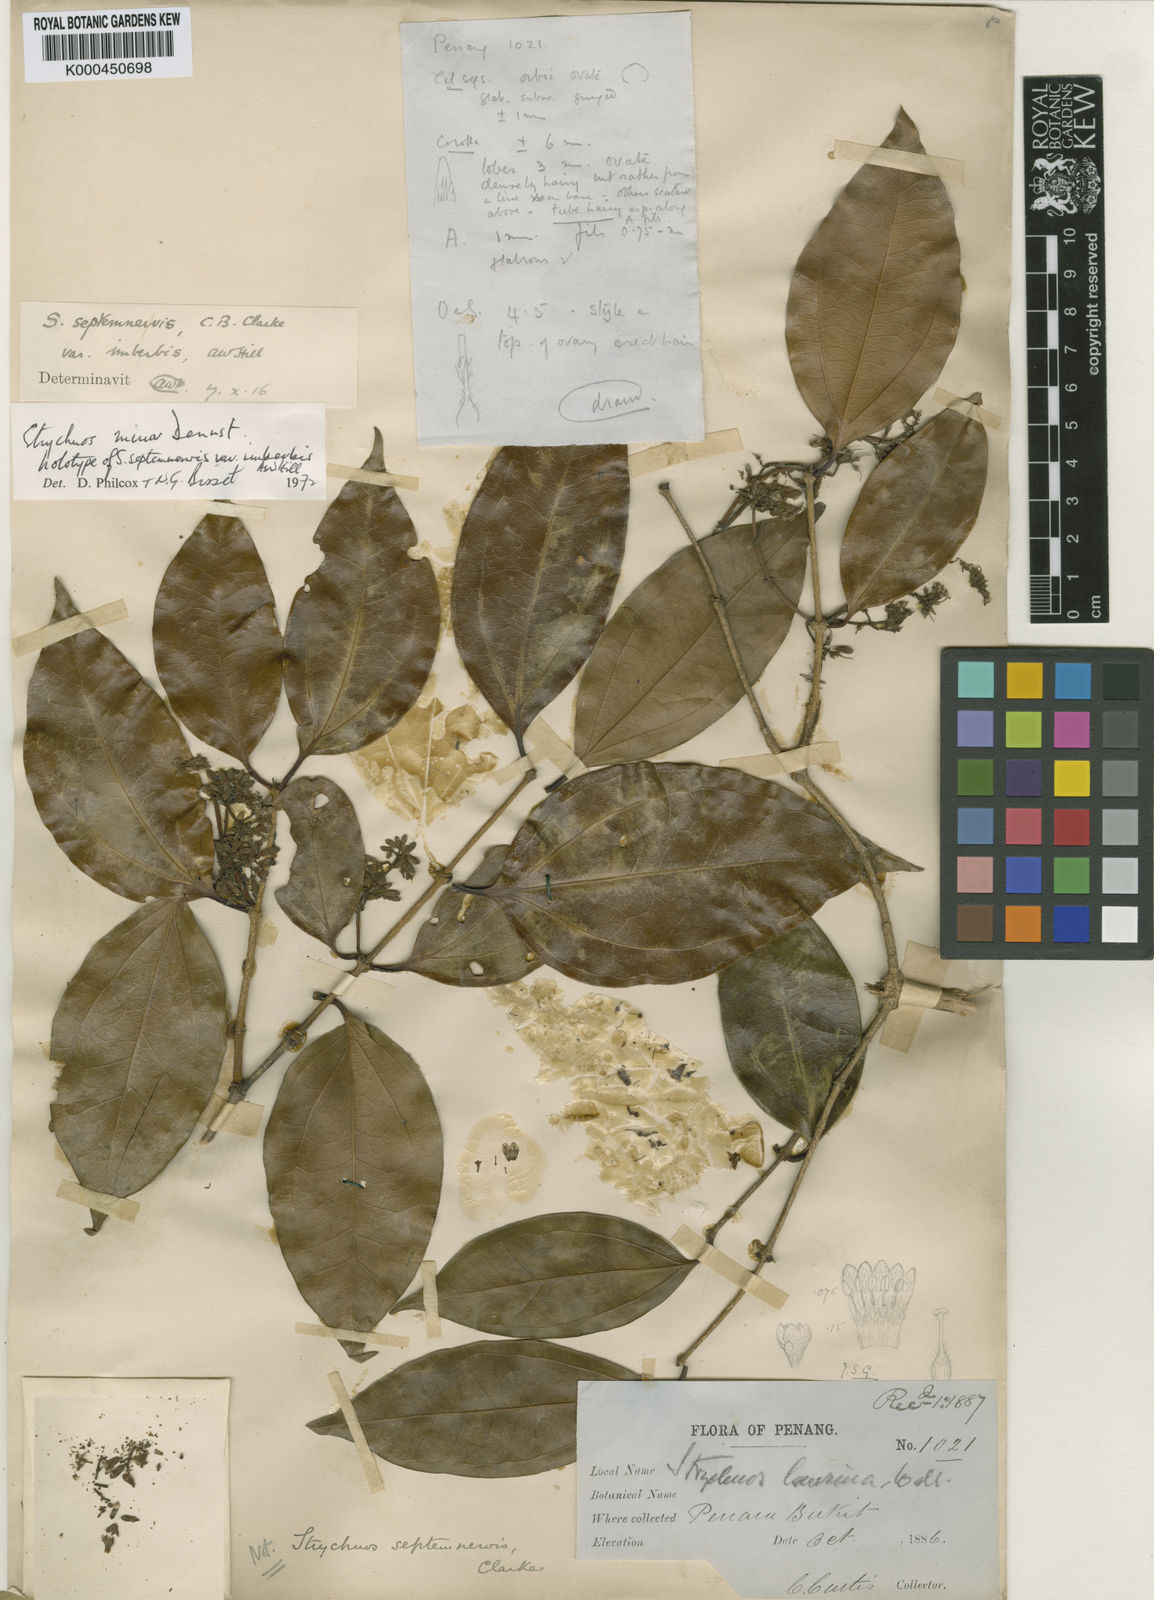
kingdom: Plantae
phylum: Tracheophyta
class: Magnoliopsida
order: Gentianales
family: Loganiaceae
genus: Strychnos
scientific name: Strychnos minor
